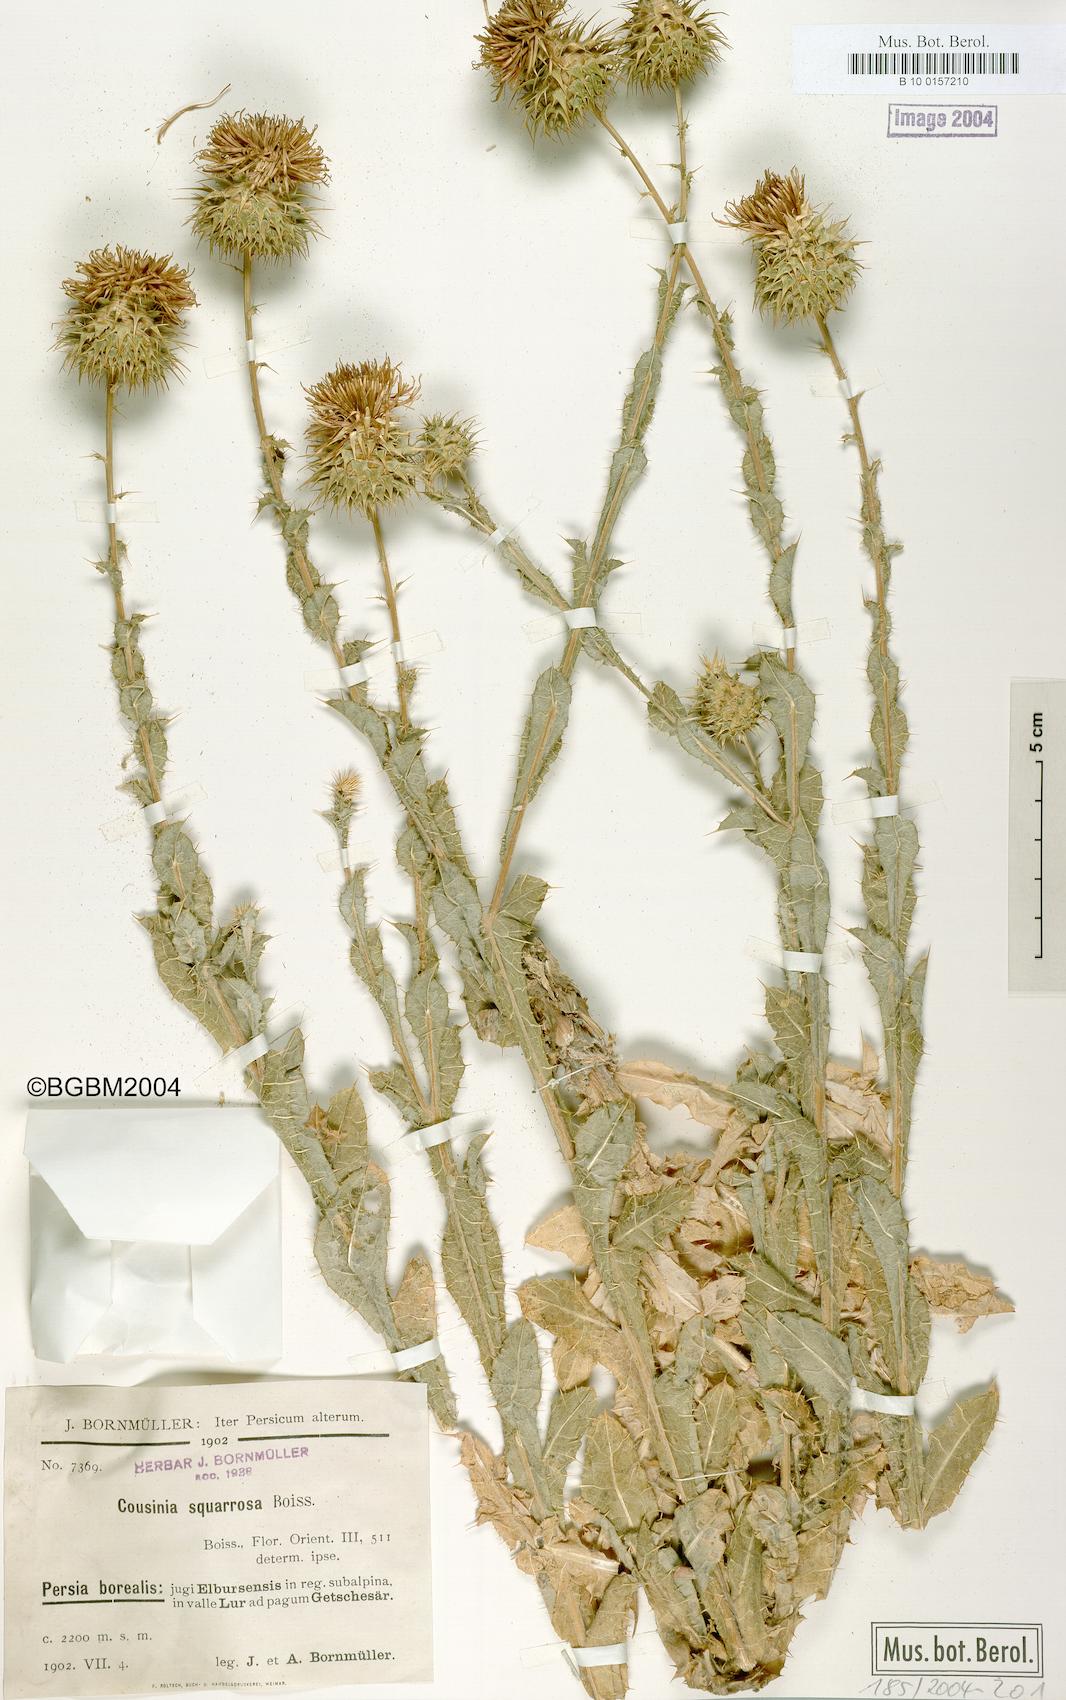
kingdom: Plantae
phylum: Tracheophyta
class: Magnoliopsida
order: Asterales
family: Asteraceae
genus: Cousinia
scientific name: Cousinia calocephala
